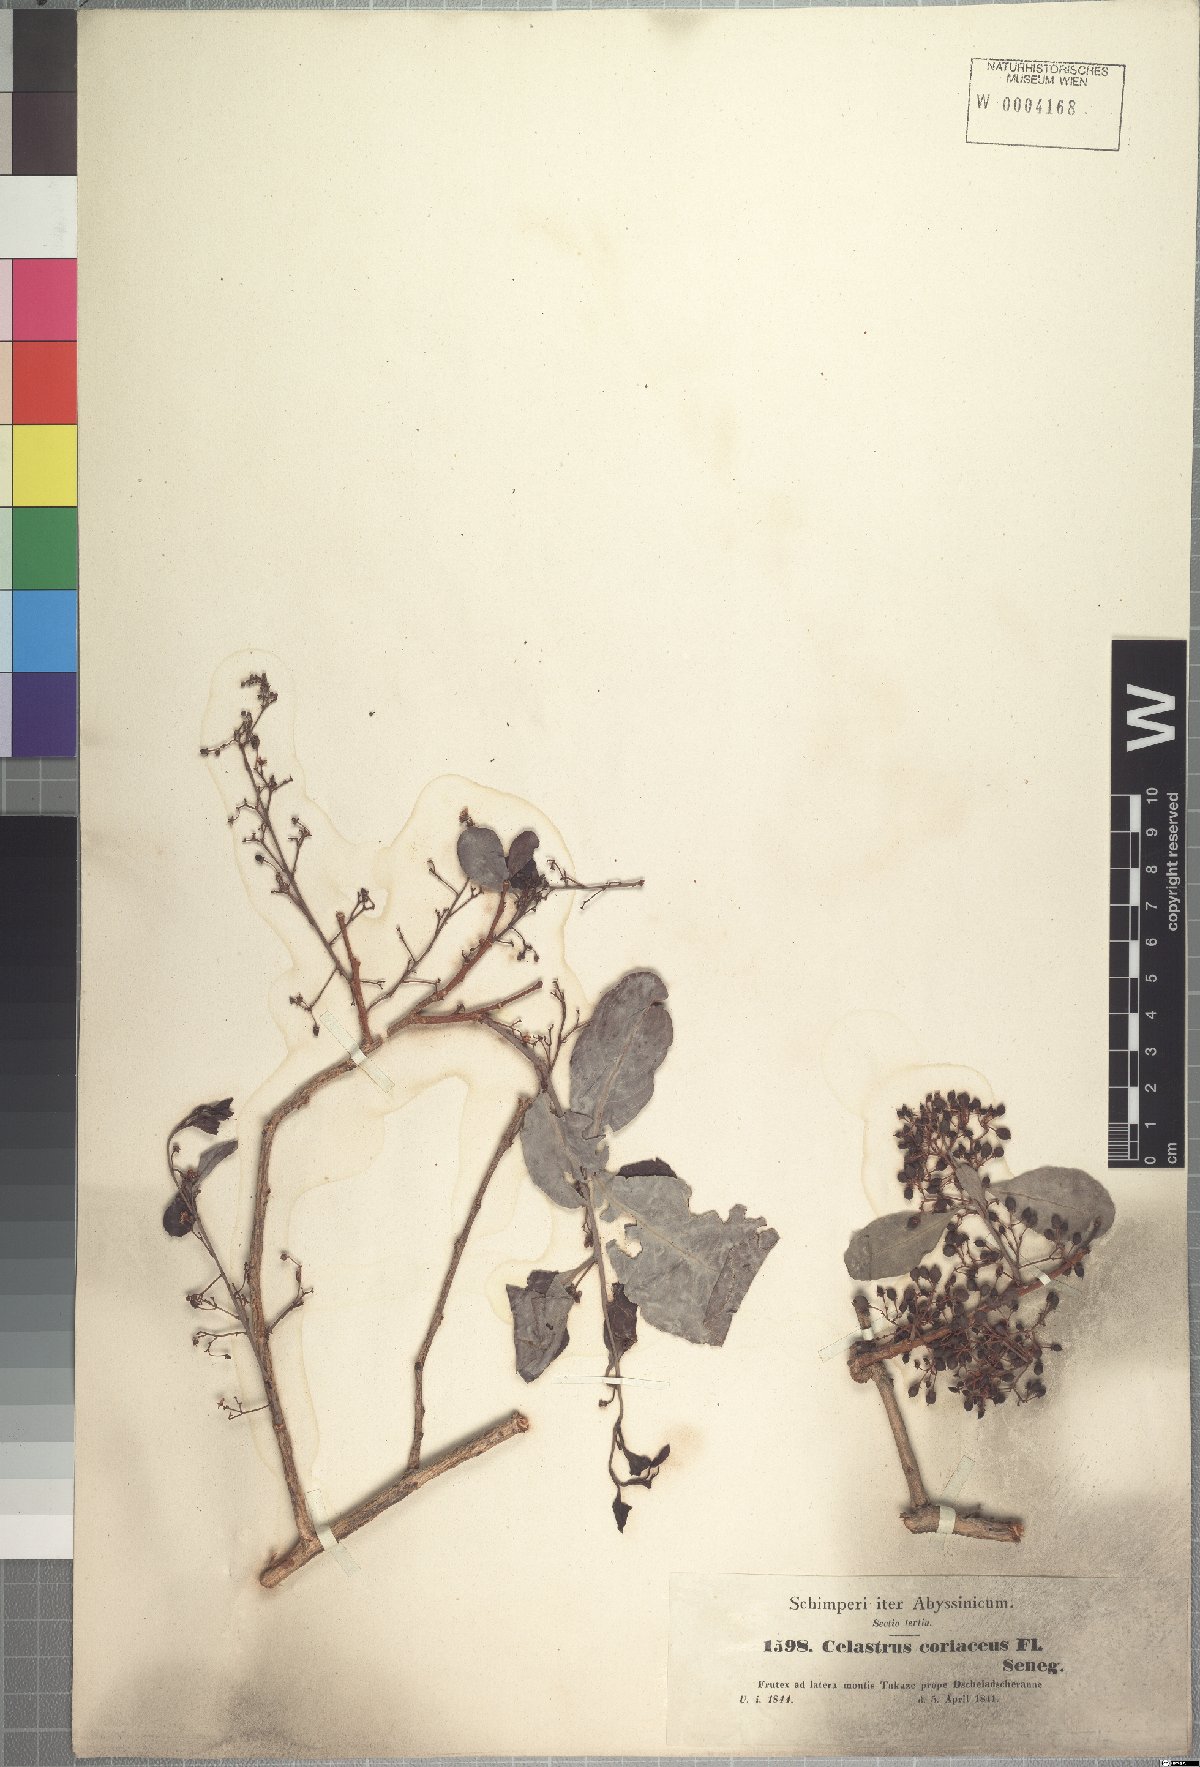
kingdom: Plantae
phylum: Tracheophyta
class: Magnoliopsida
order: Celastrales
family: Celastraceae
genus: Gymnosporia
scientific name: Gymnosporia senegalensis
